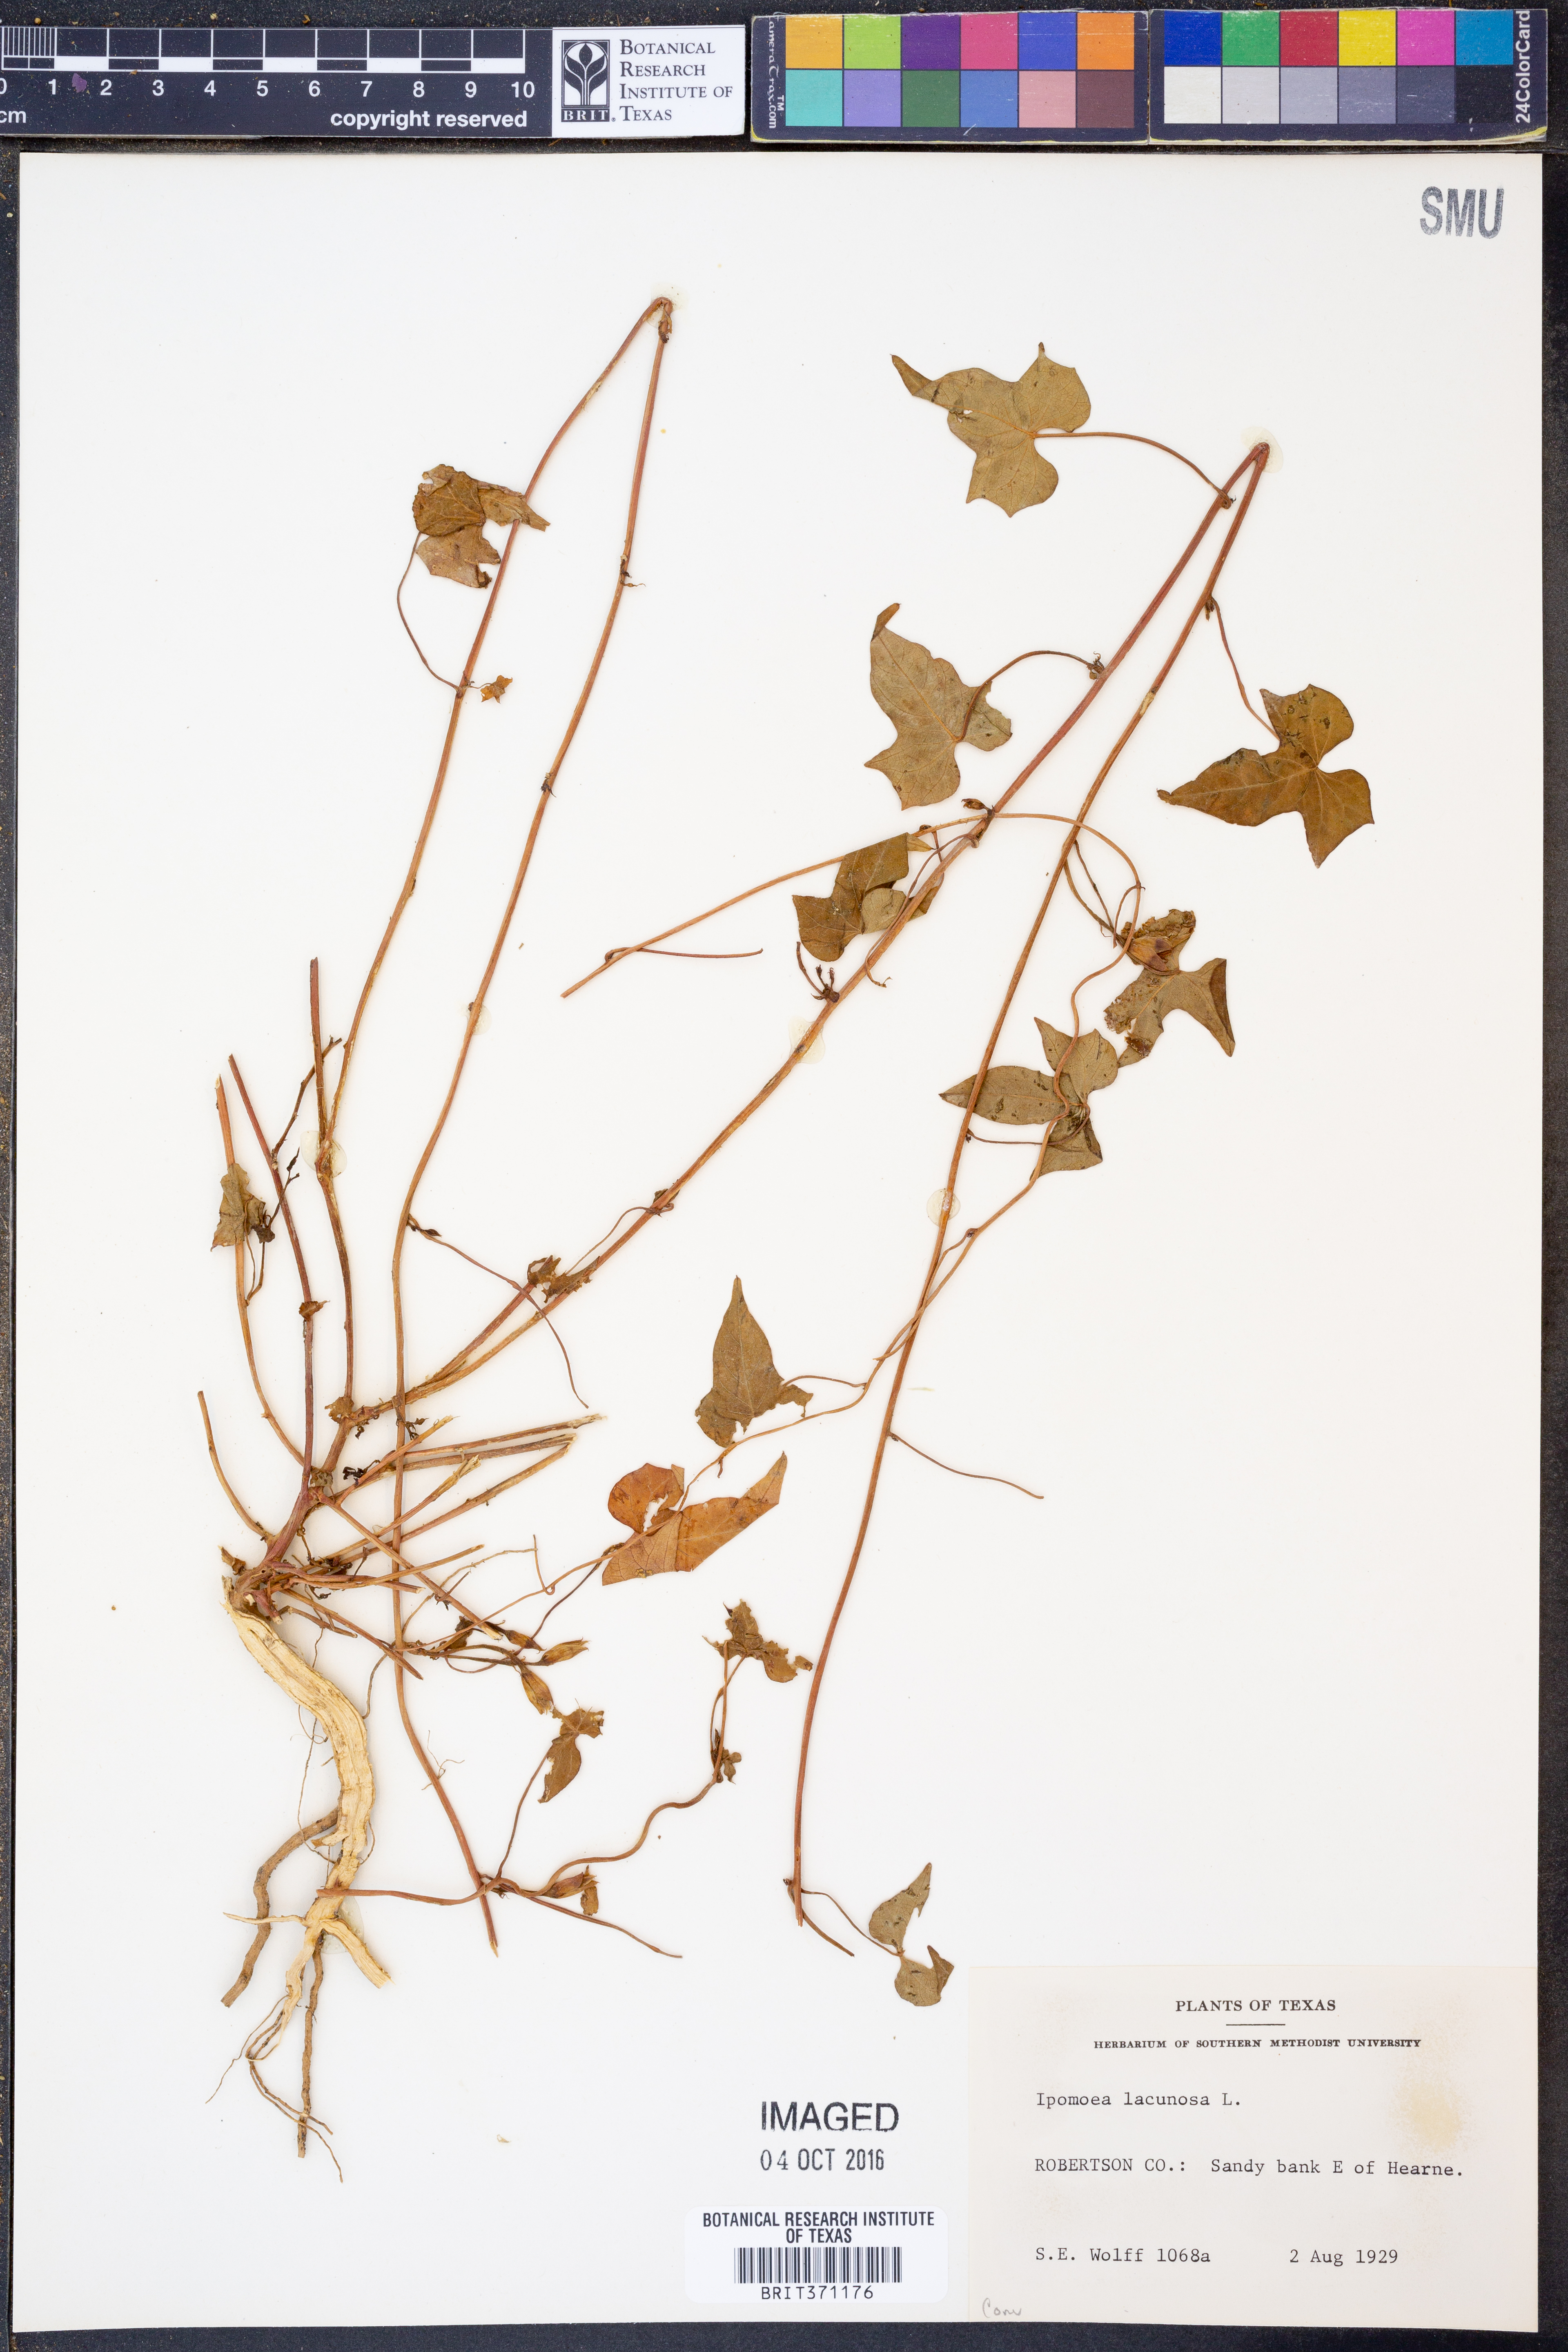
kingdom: Plantae
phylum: Tracheophyta
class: Magnoliopsida
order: Solanales
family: Convolvulaceae
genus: Ipomoea
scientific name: Ipomoea lacunosa
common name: White morning-glory
